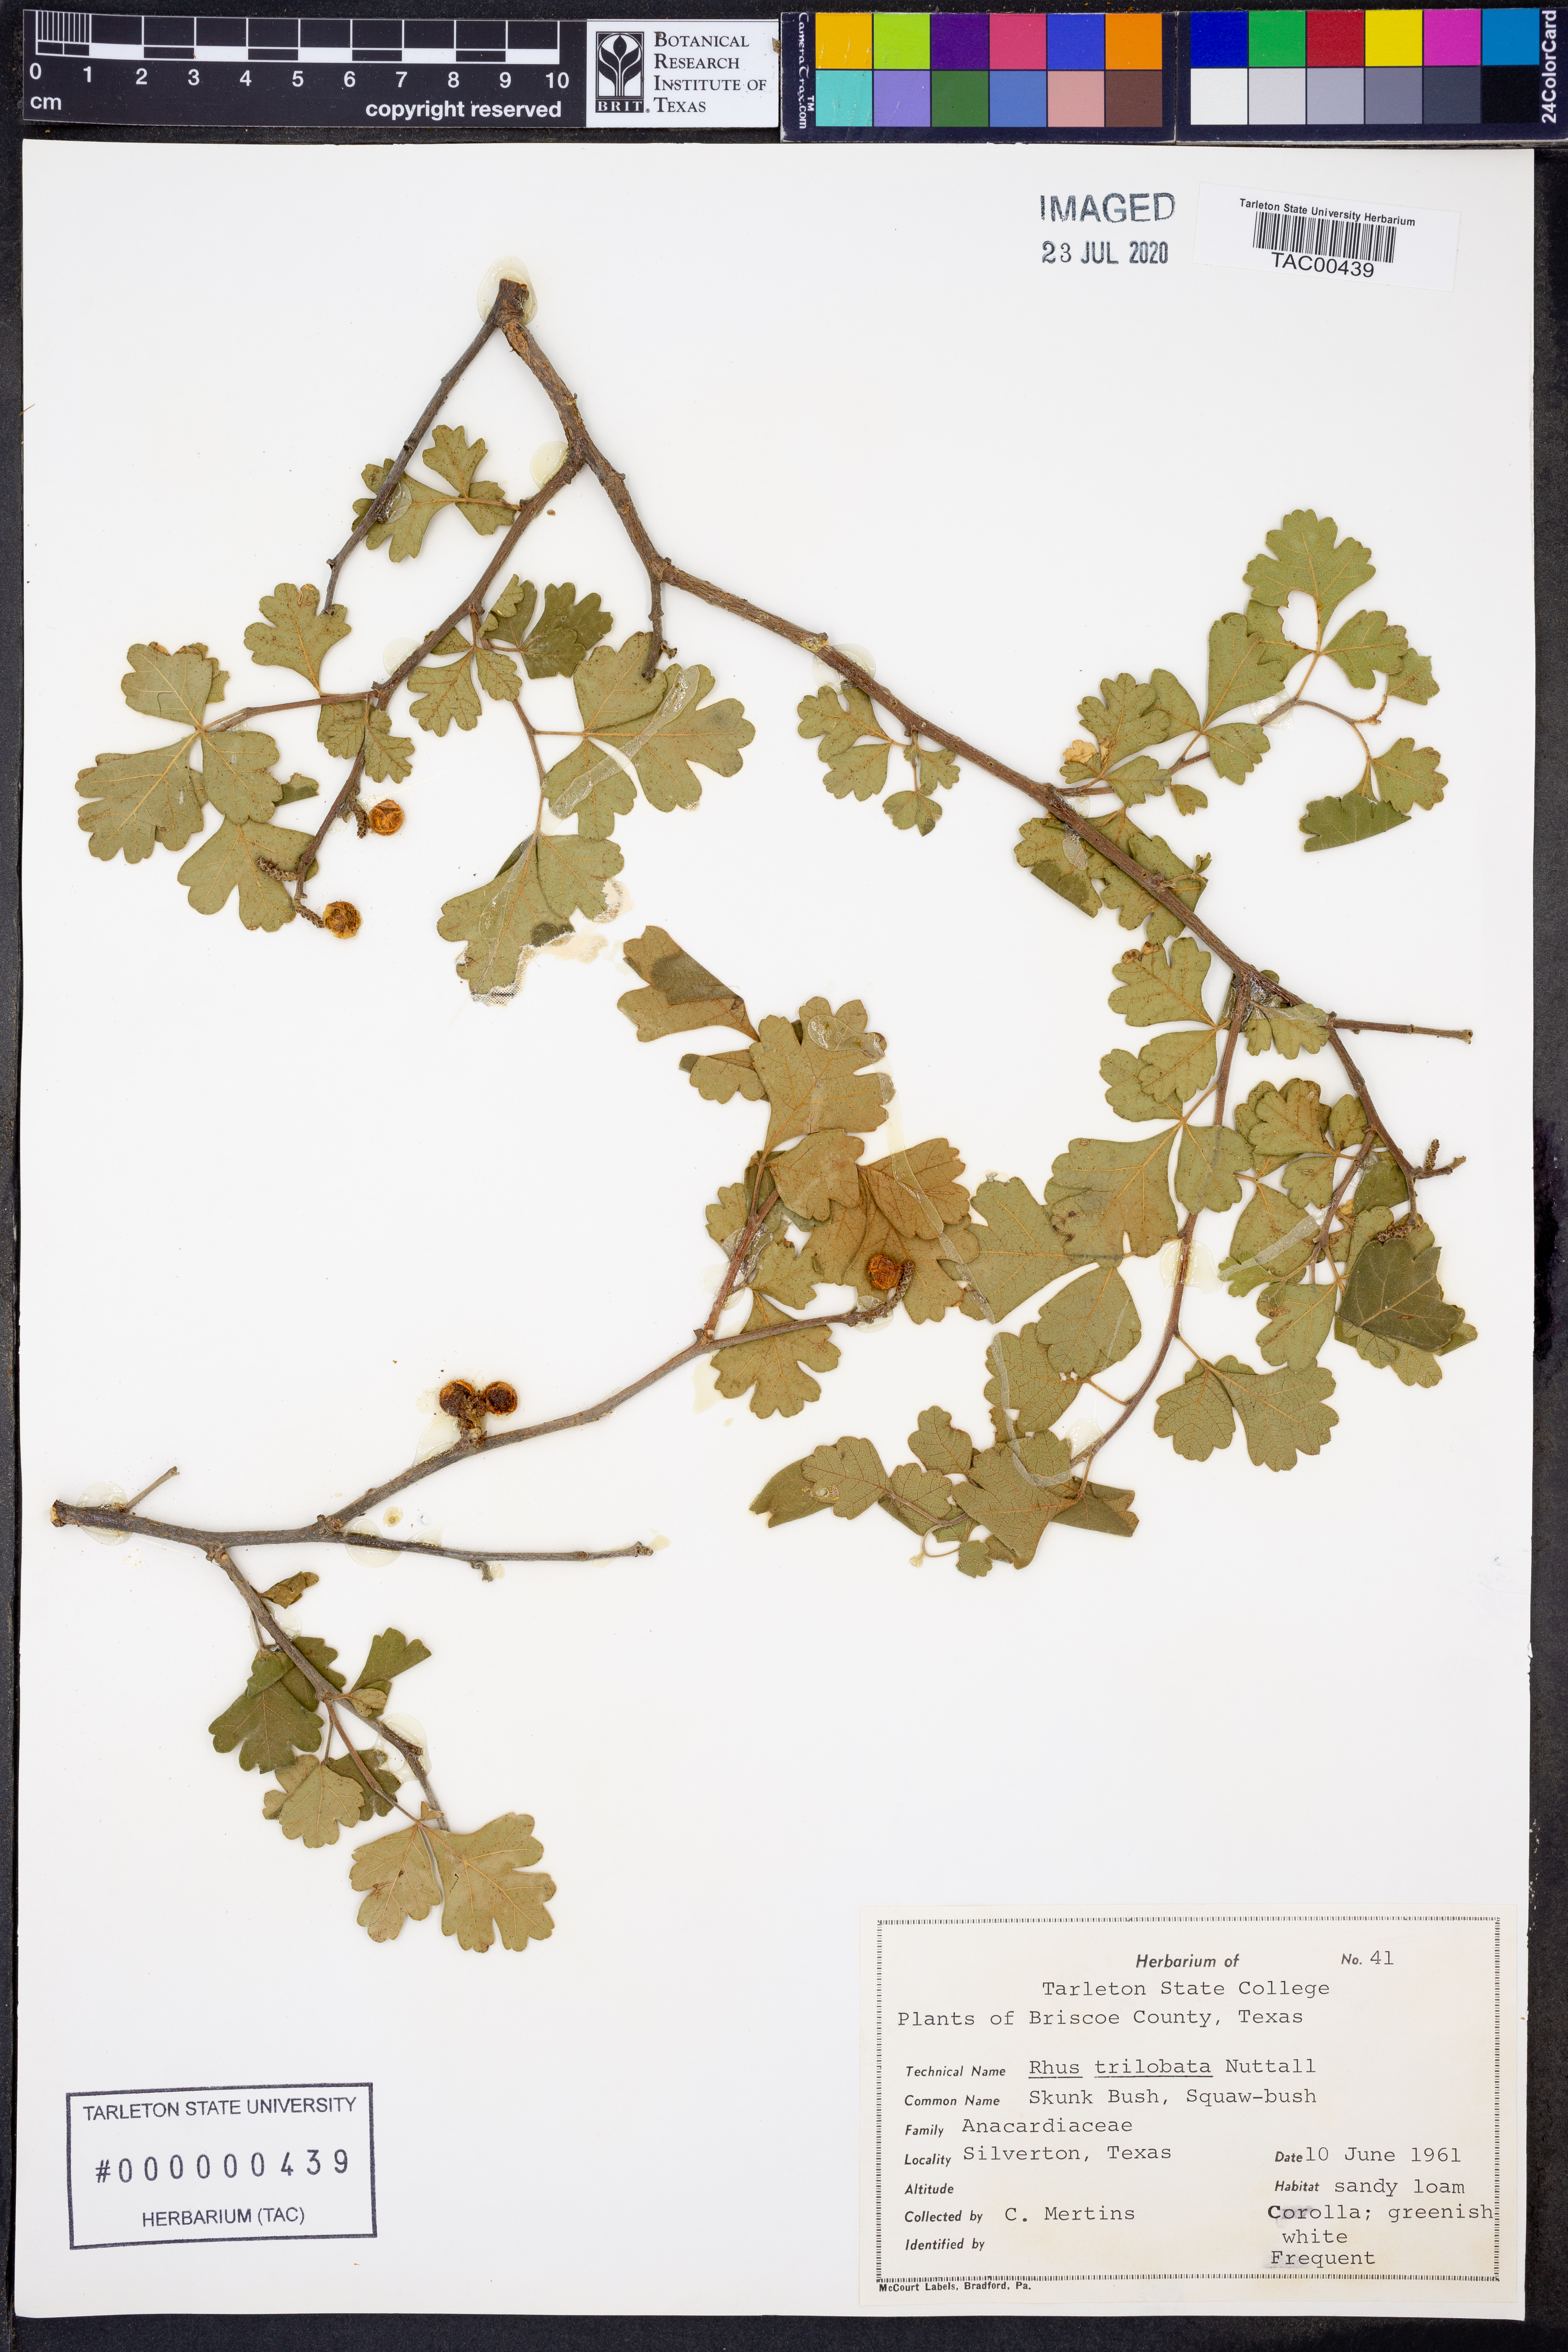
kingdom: Plantae
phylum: Tracheophyta
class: Magnoliopsida
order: Sapindales
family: Anacardiaceae
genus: Rhus
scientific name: Rhus trilobata
